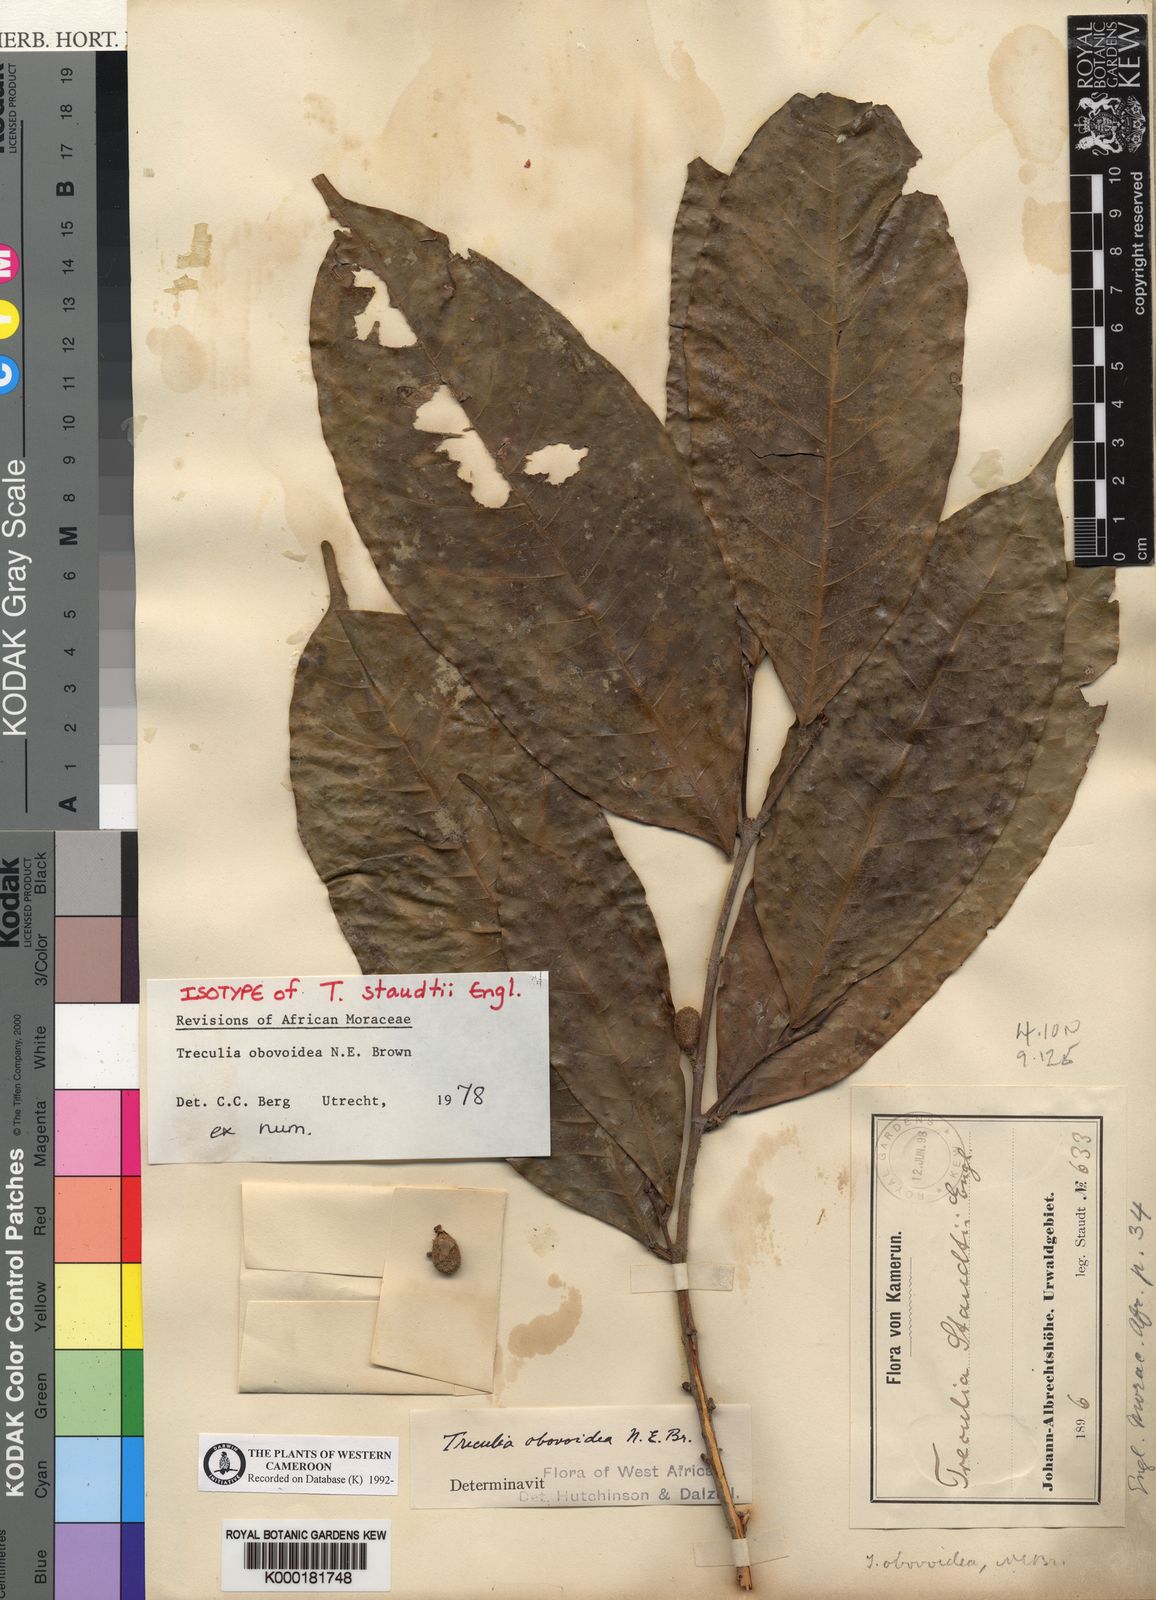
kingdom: Plantae
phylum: Tracheophyta
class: Magnoliopsida
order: Rosales
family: Moraceae
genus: Treculia
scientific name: Treculia obovoidea
